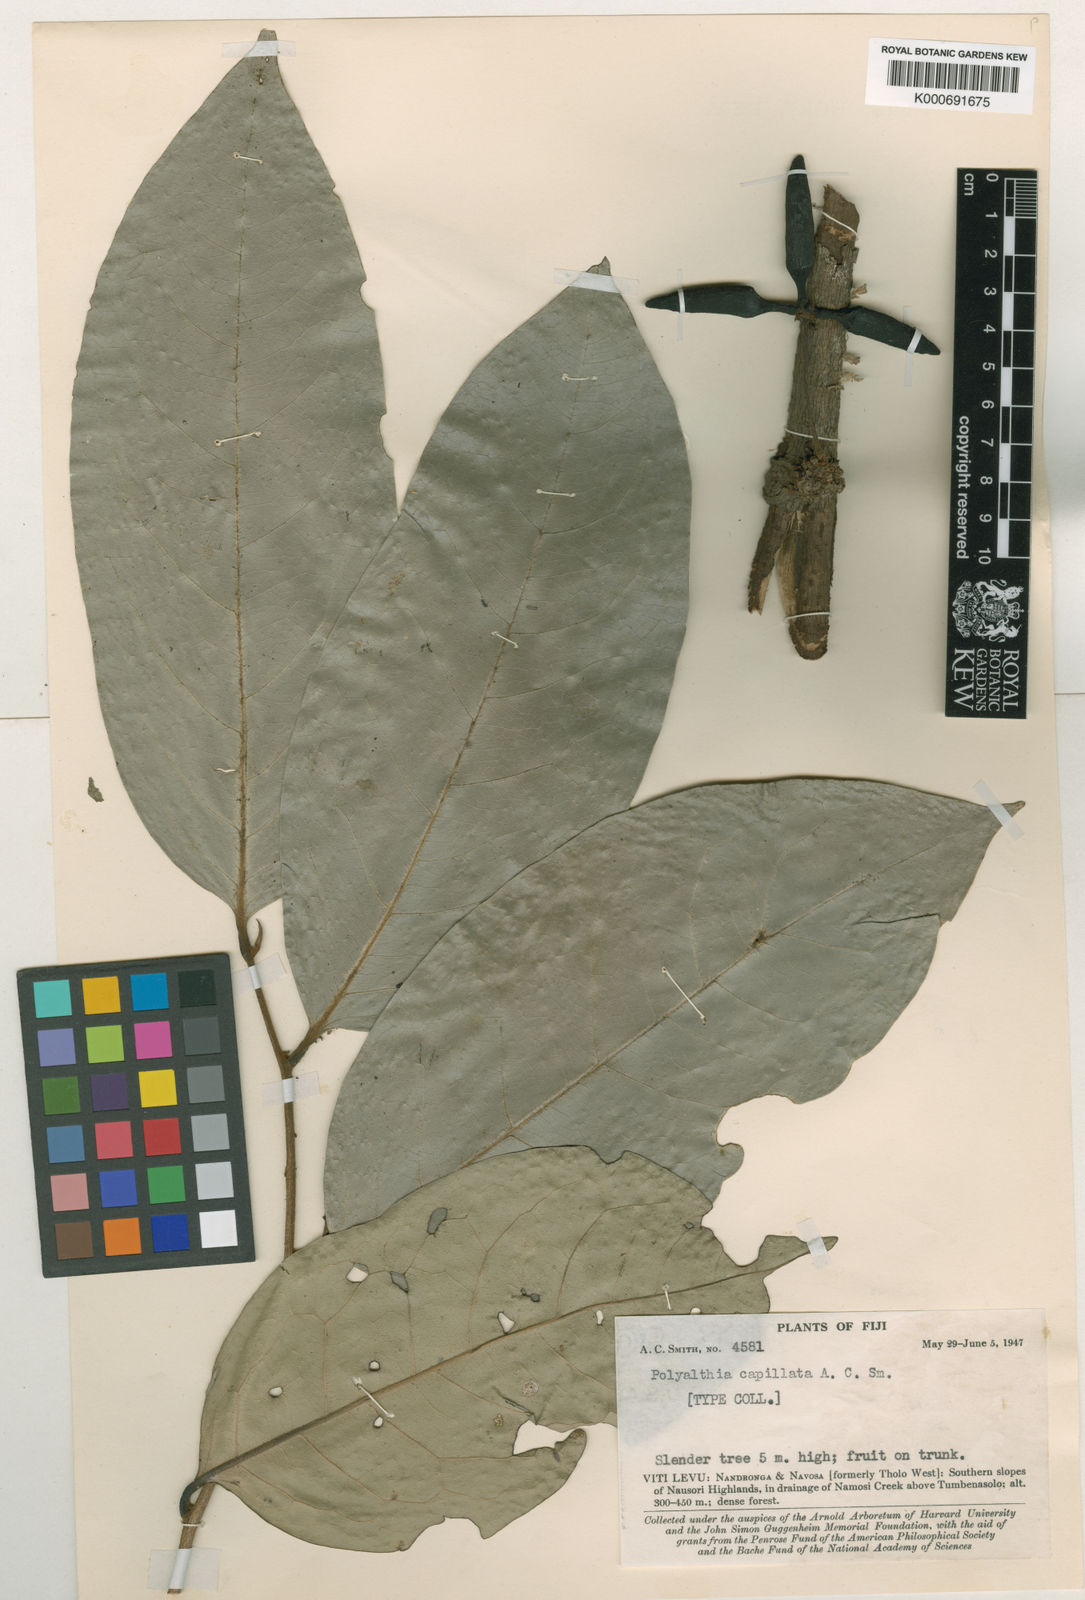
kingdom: Plantae
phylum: Tracheophyta
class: Magnoliopsida
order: Magnoliales
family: Annonaceae
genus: Hubera
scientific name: Hubera capillata
